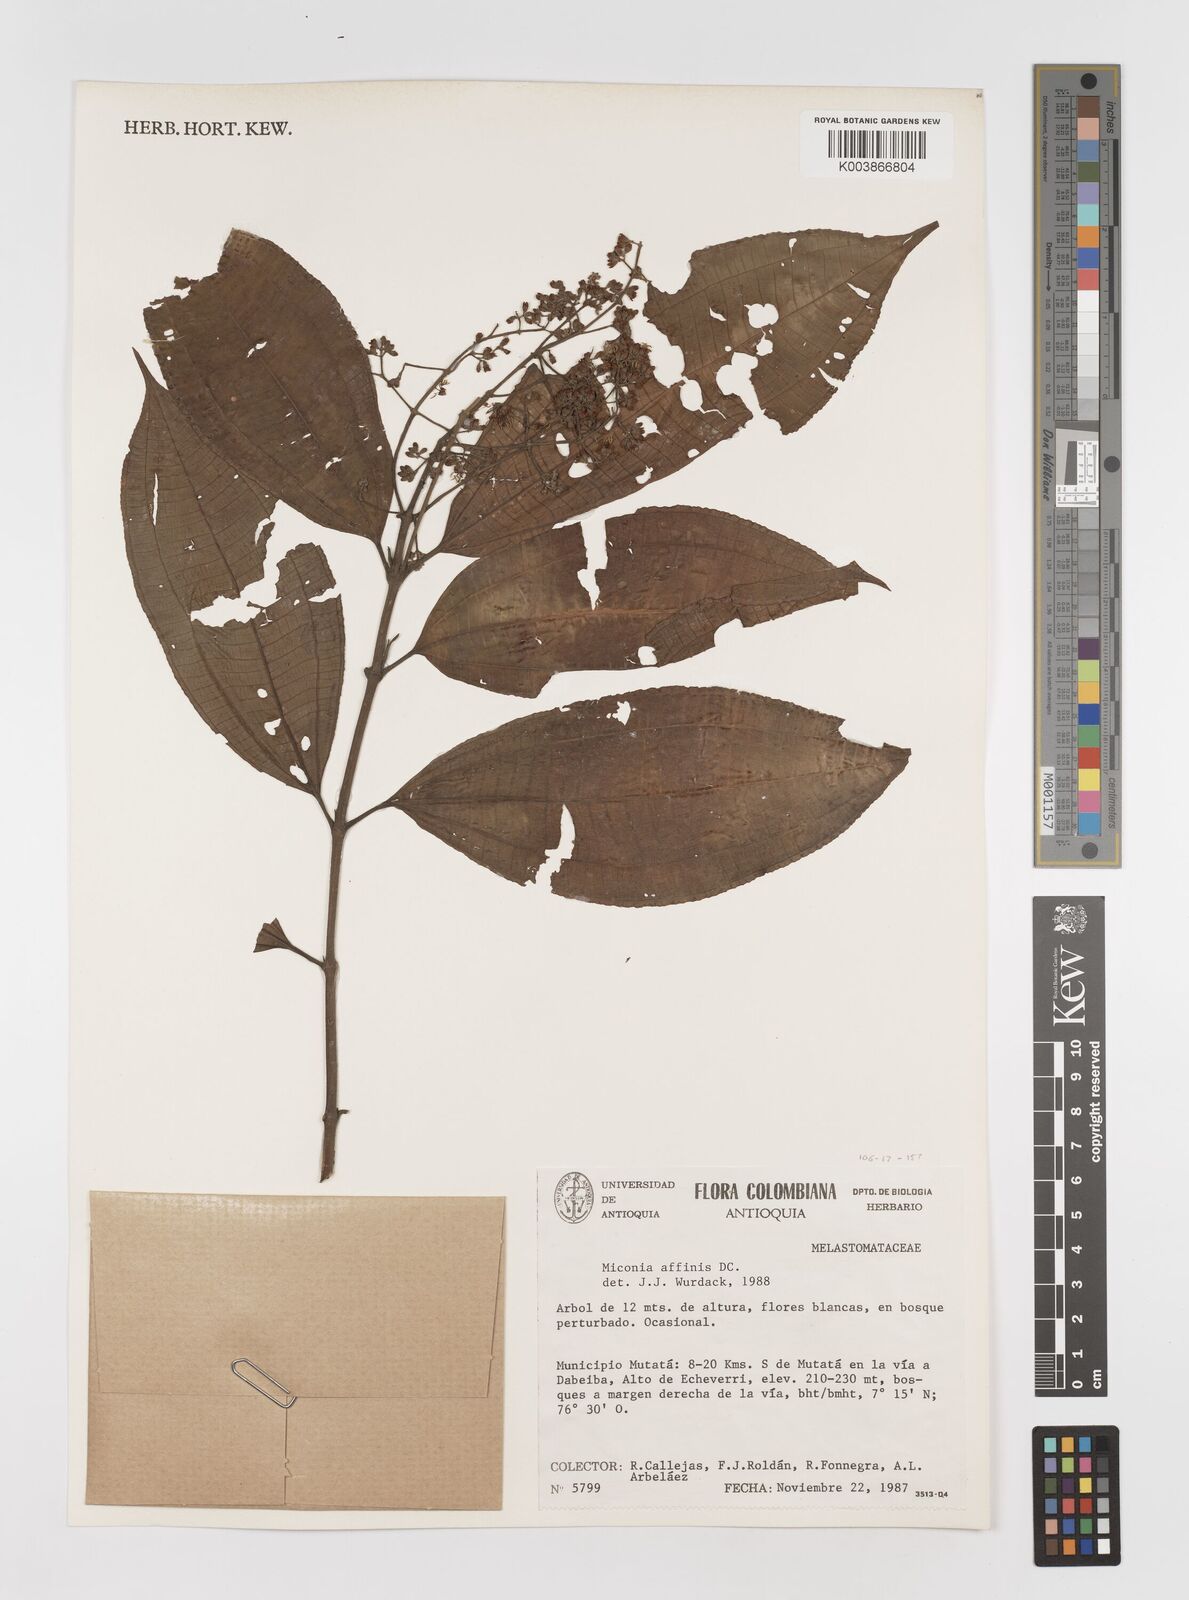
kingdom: Plantae
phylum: Tracheophyta
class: Magnoliopsida
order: Myrtales
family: Melastomataceae
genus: Miconia
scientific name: Miconia
